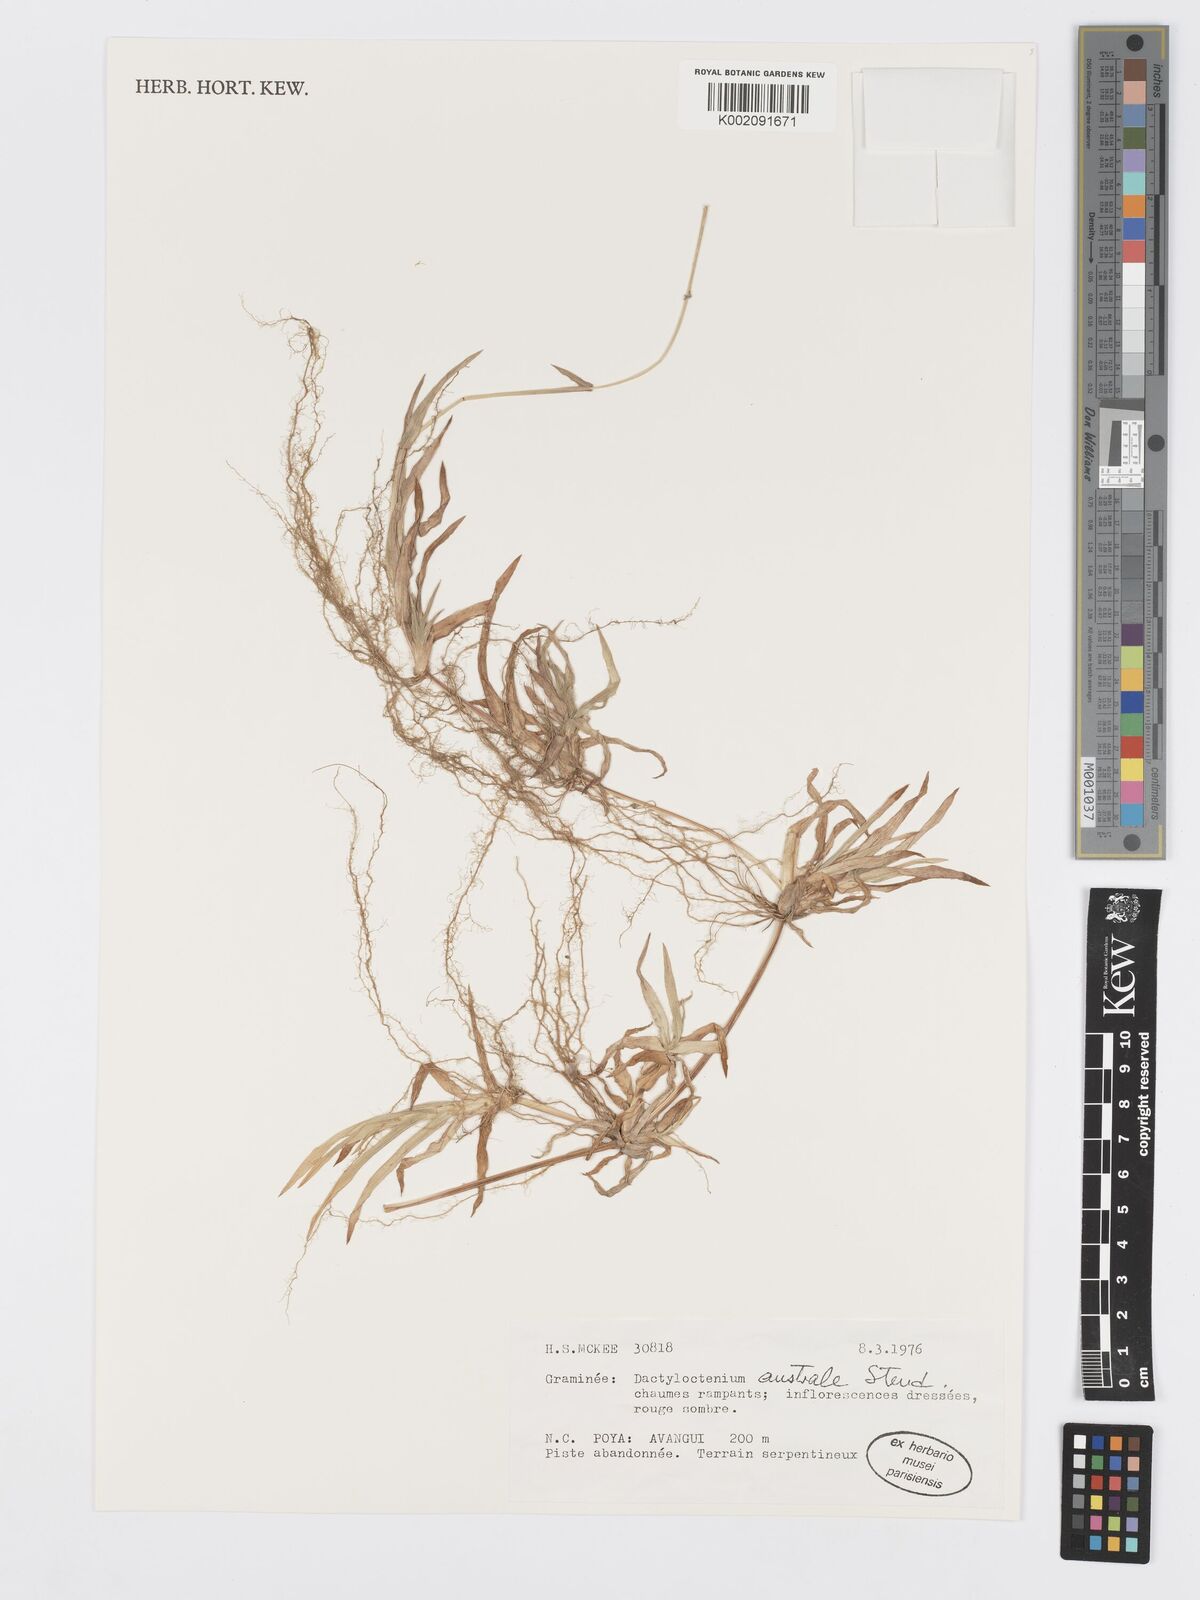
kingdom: Plantae
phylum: Tracheophyta
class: Liliopsida
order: Poales
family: Poaceae
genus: Dactyloctenium
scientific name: Dactyloctenium aegyptium
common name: Egyptian grass
